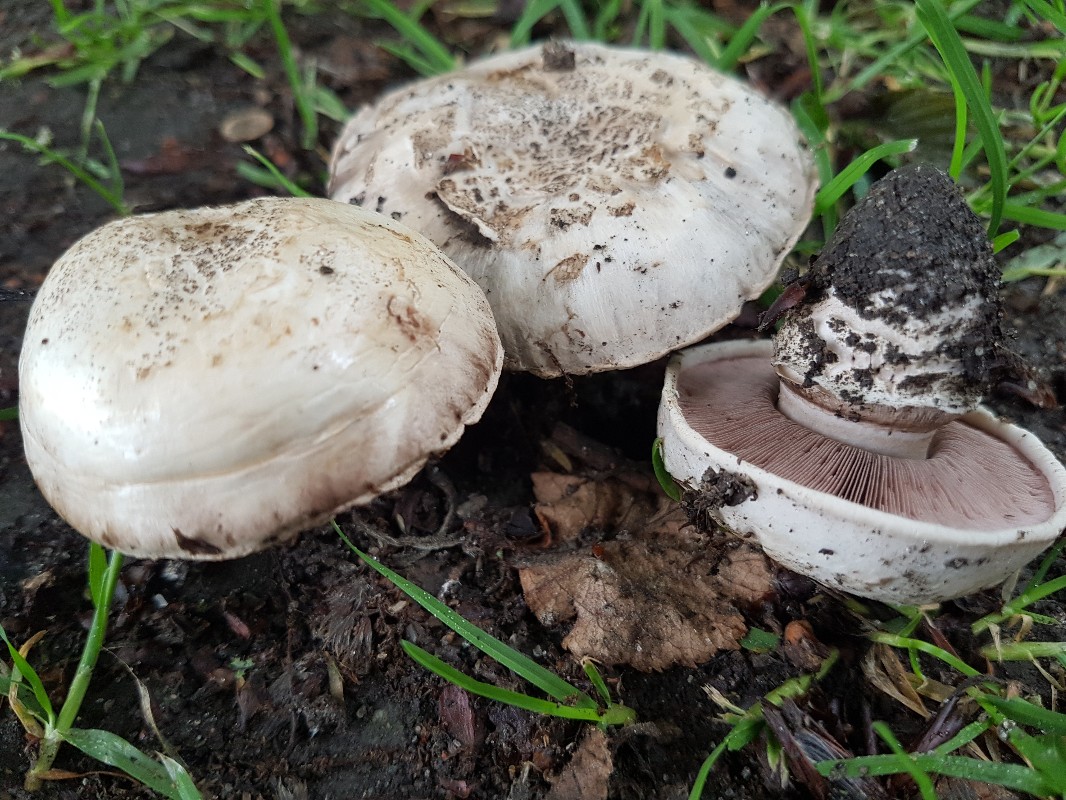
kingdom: Fungi
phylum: Basidiomycota
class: Agaricomycetes
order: Agaricales
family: Agaricaceae
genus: Agaricus
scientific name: Agaricus bitorquis
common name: vej-champignon
